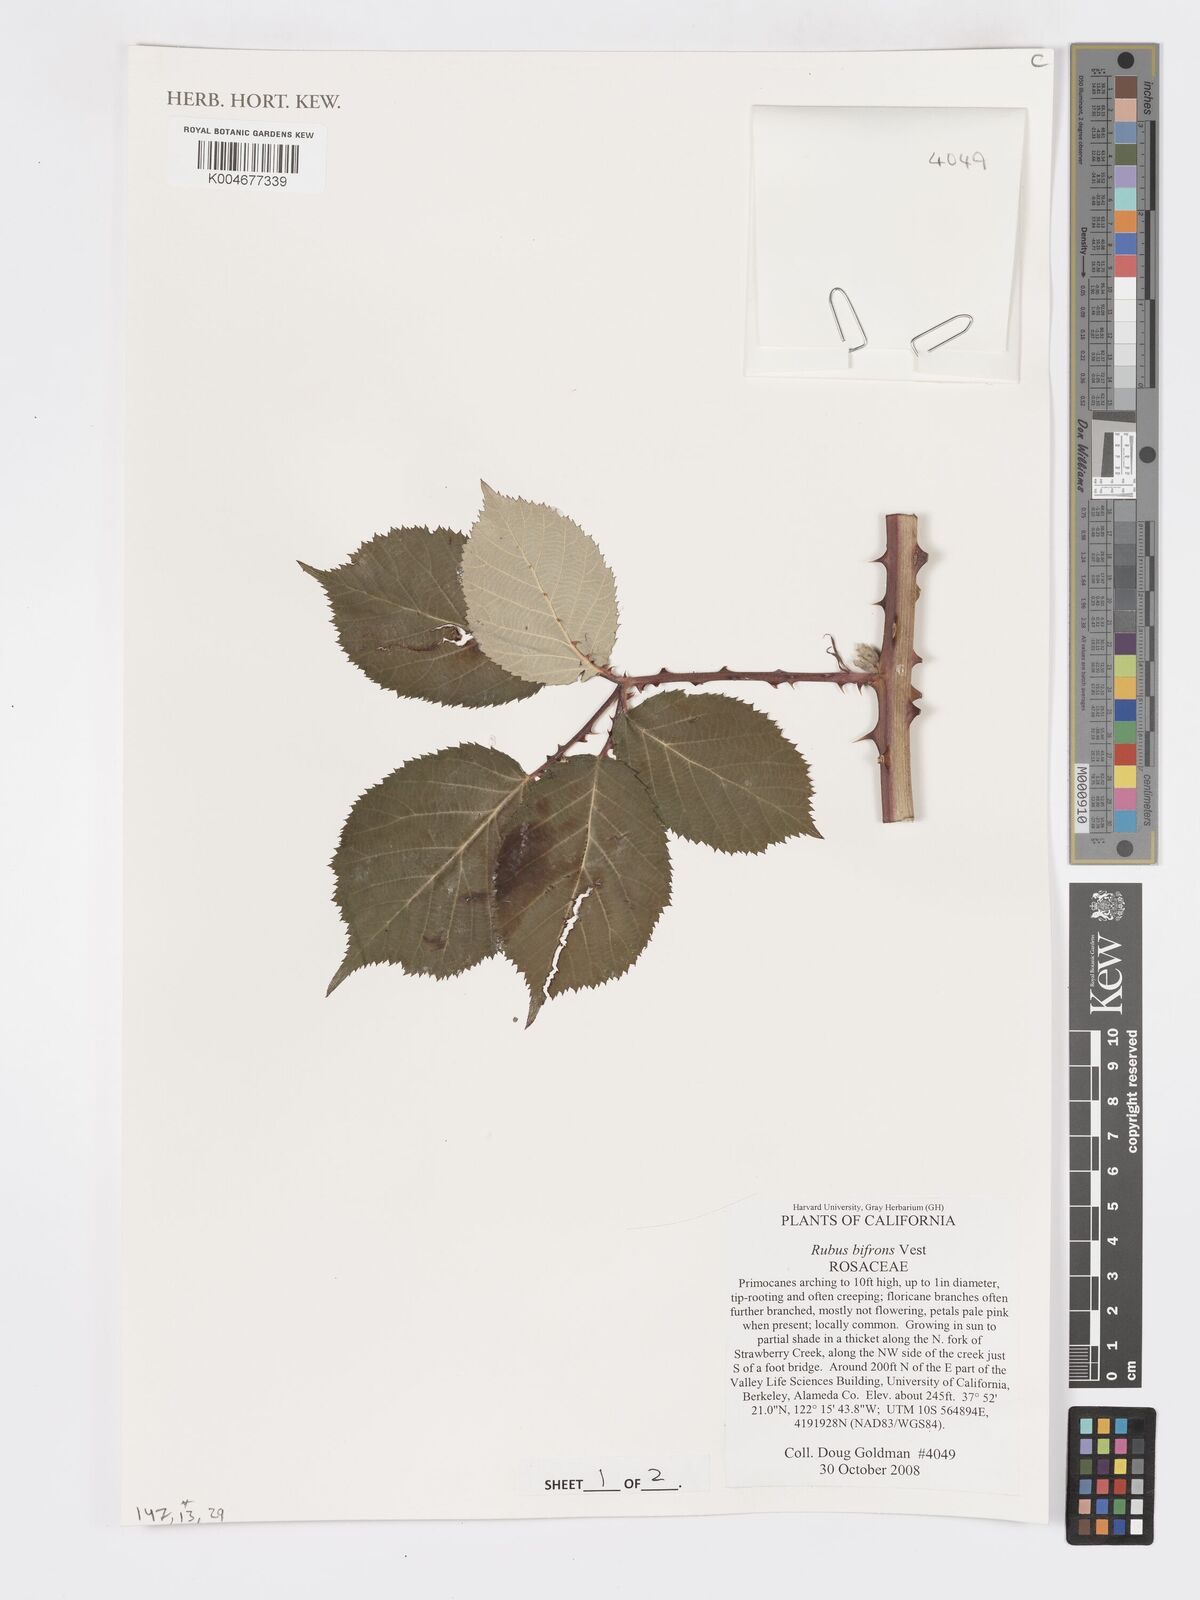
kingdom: Plantae
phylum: Tracheophyta
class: Magnoliopsida
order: Rosales
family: Rosaceae
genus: Rubus
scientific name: Rubus bifrons
